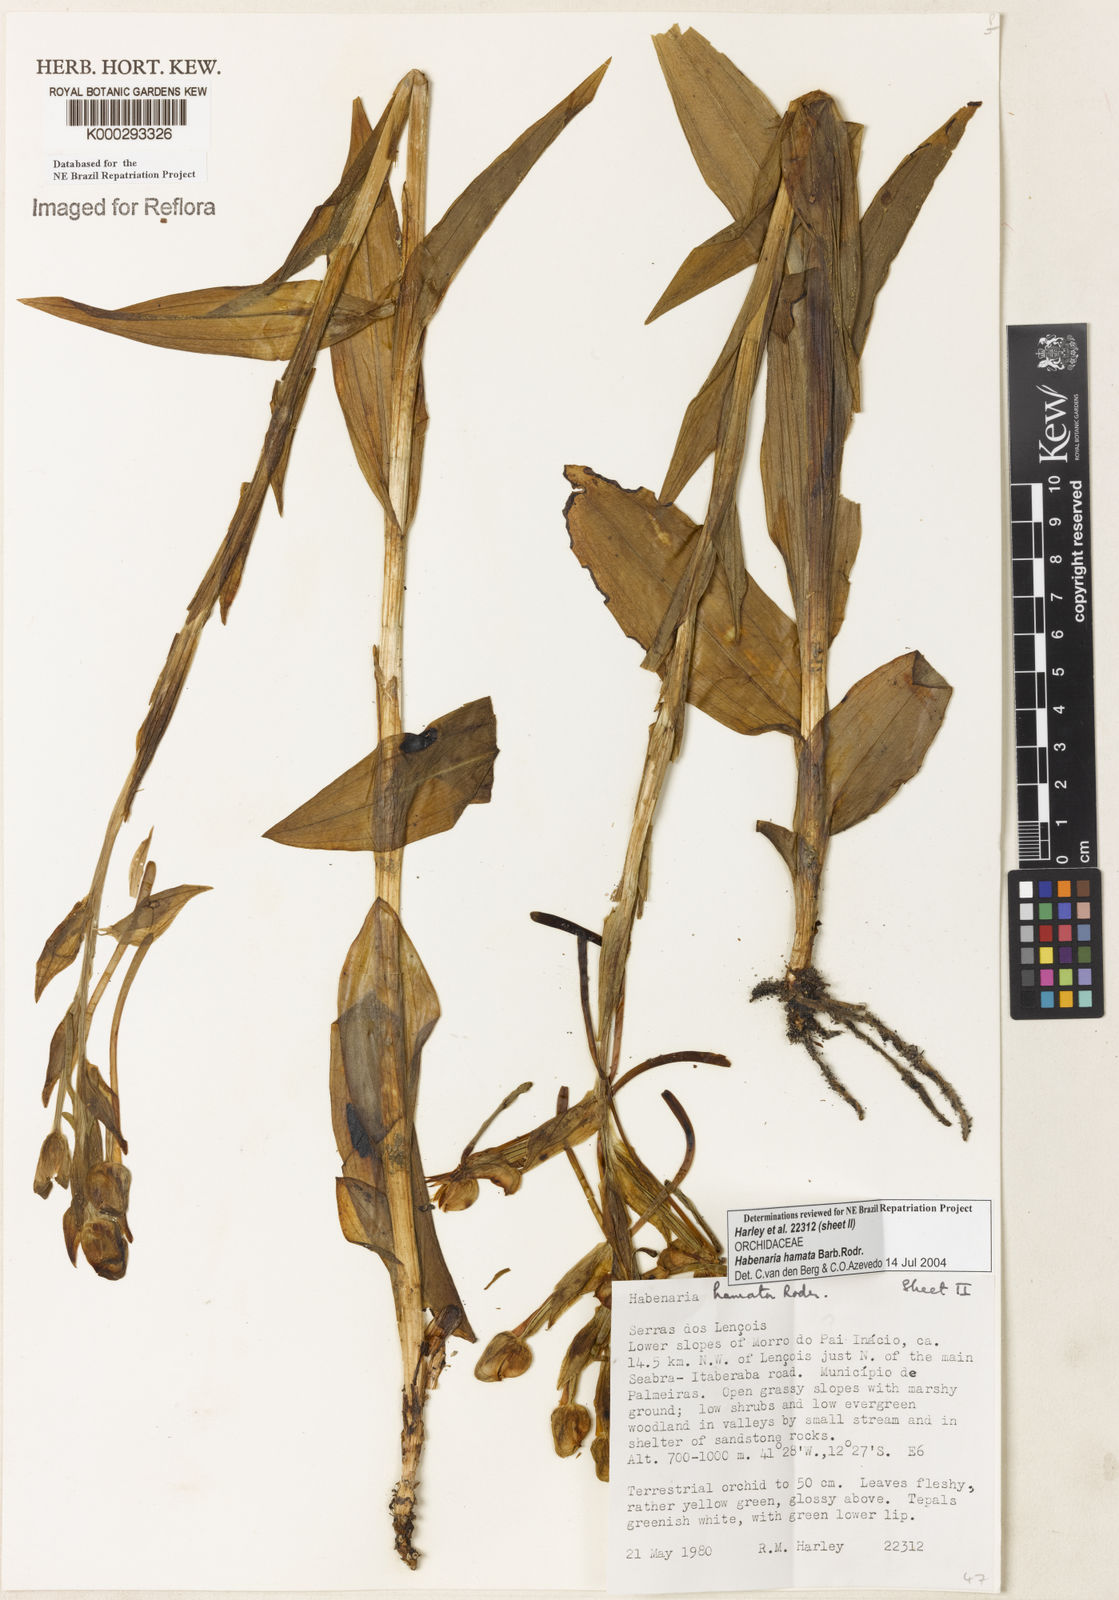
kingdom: Plantae
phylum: Tracheophyta
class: Liliopsida
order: Asparagales
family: Orchidaceae
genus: Habenaria
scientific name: Habenaria hamata
